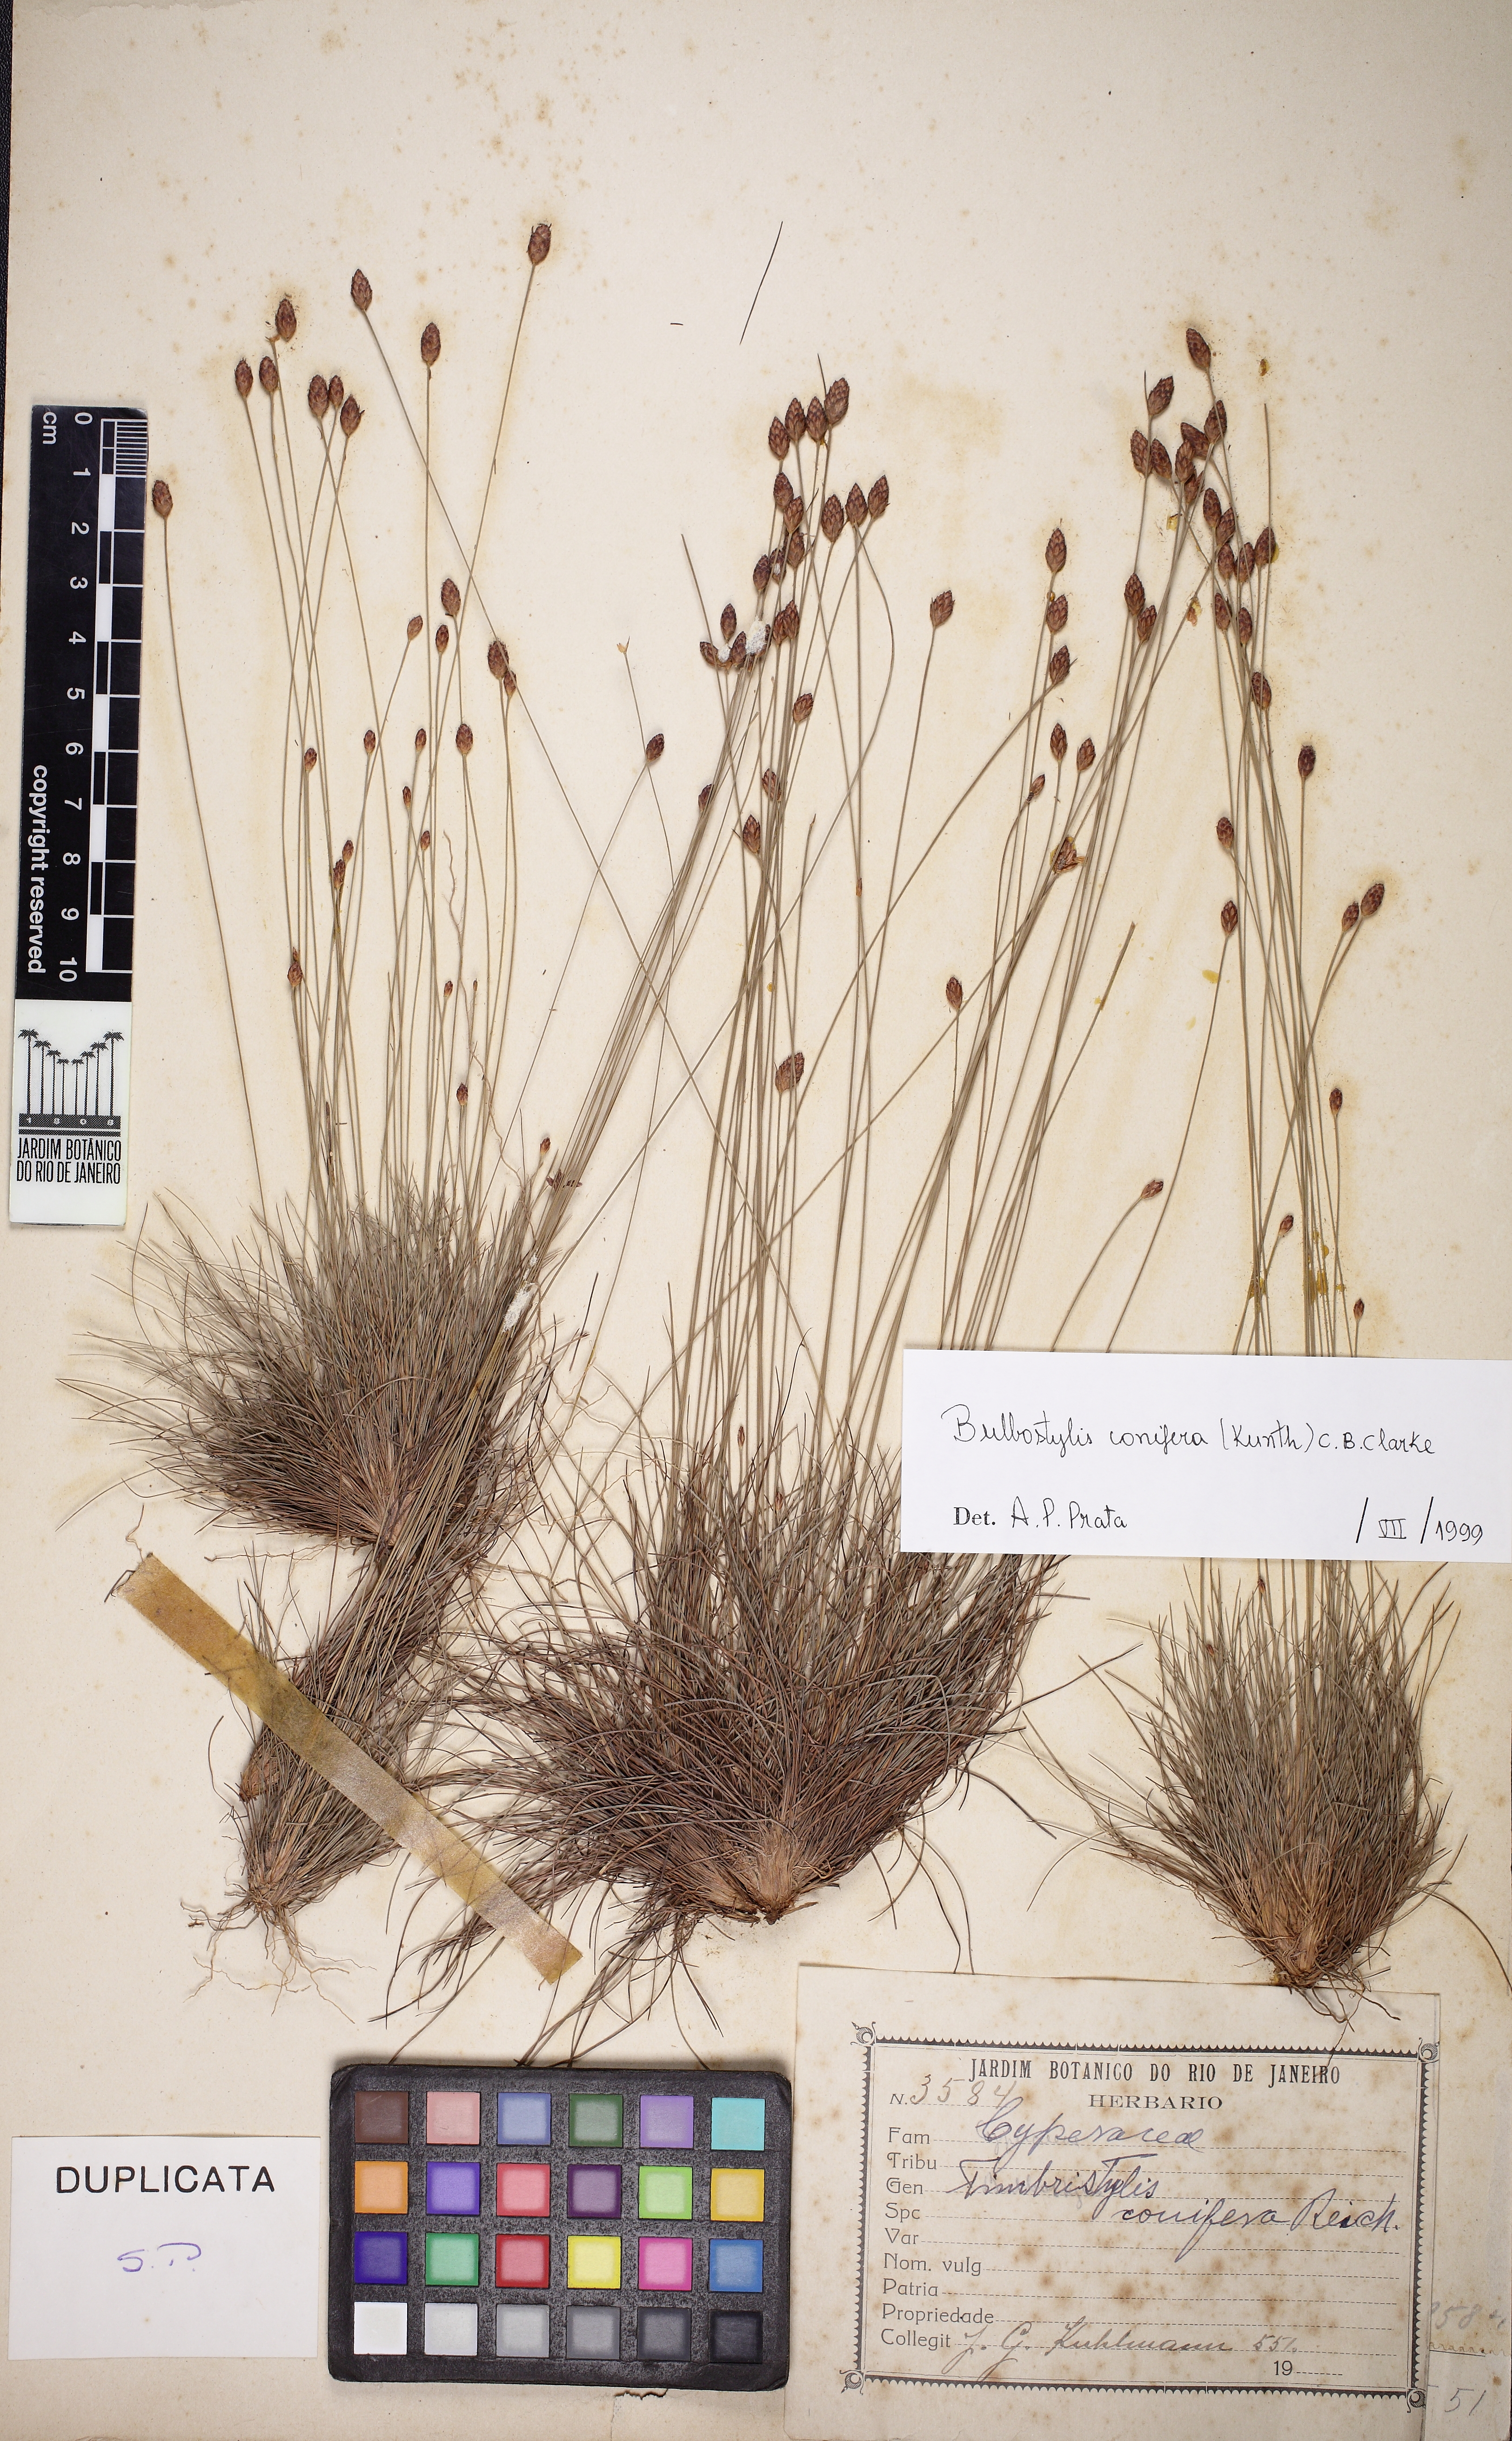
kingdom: Plantae
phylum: Tracheophyta
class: Liliopsida
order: Poales
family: Cyperaceae
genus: Bulbostylis
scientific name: Bulbostylis conifera
